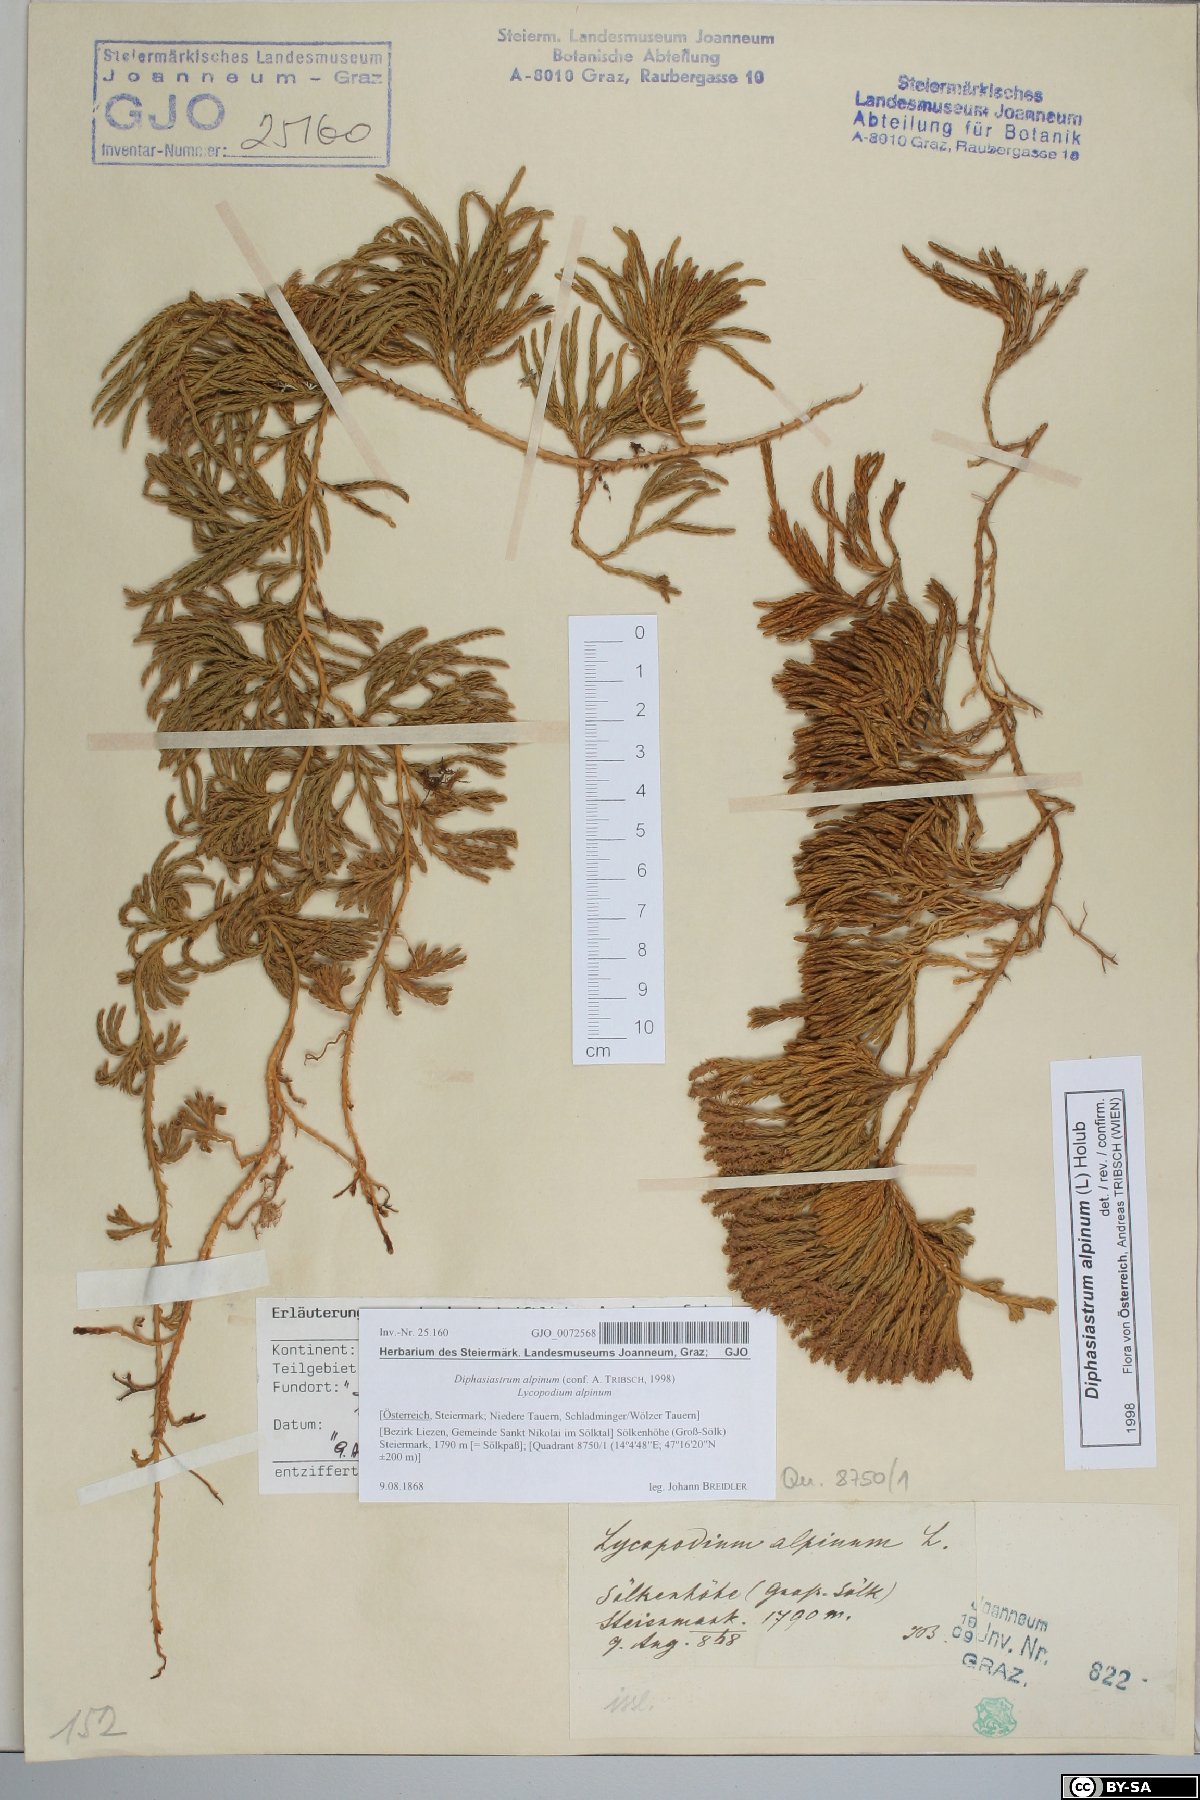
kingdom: Plantae
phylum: Tracheophyta
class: Lycopodiopsida
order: Lycopodiales
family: Lycopodiaceae
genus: Diphasiastrum
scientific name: Diphasiastrum alpinum
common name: Alpine clubmoss
